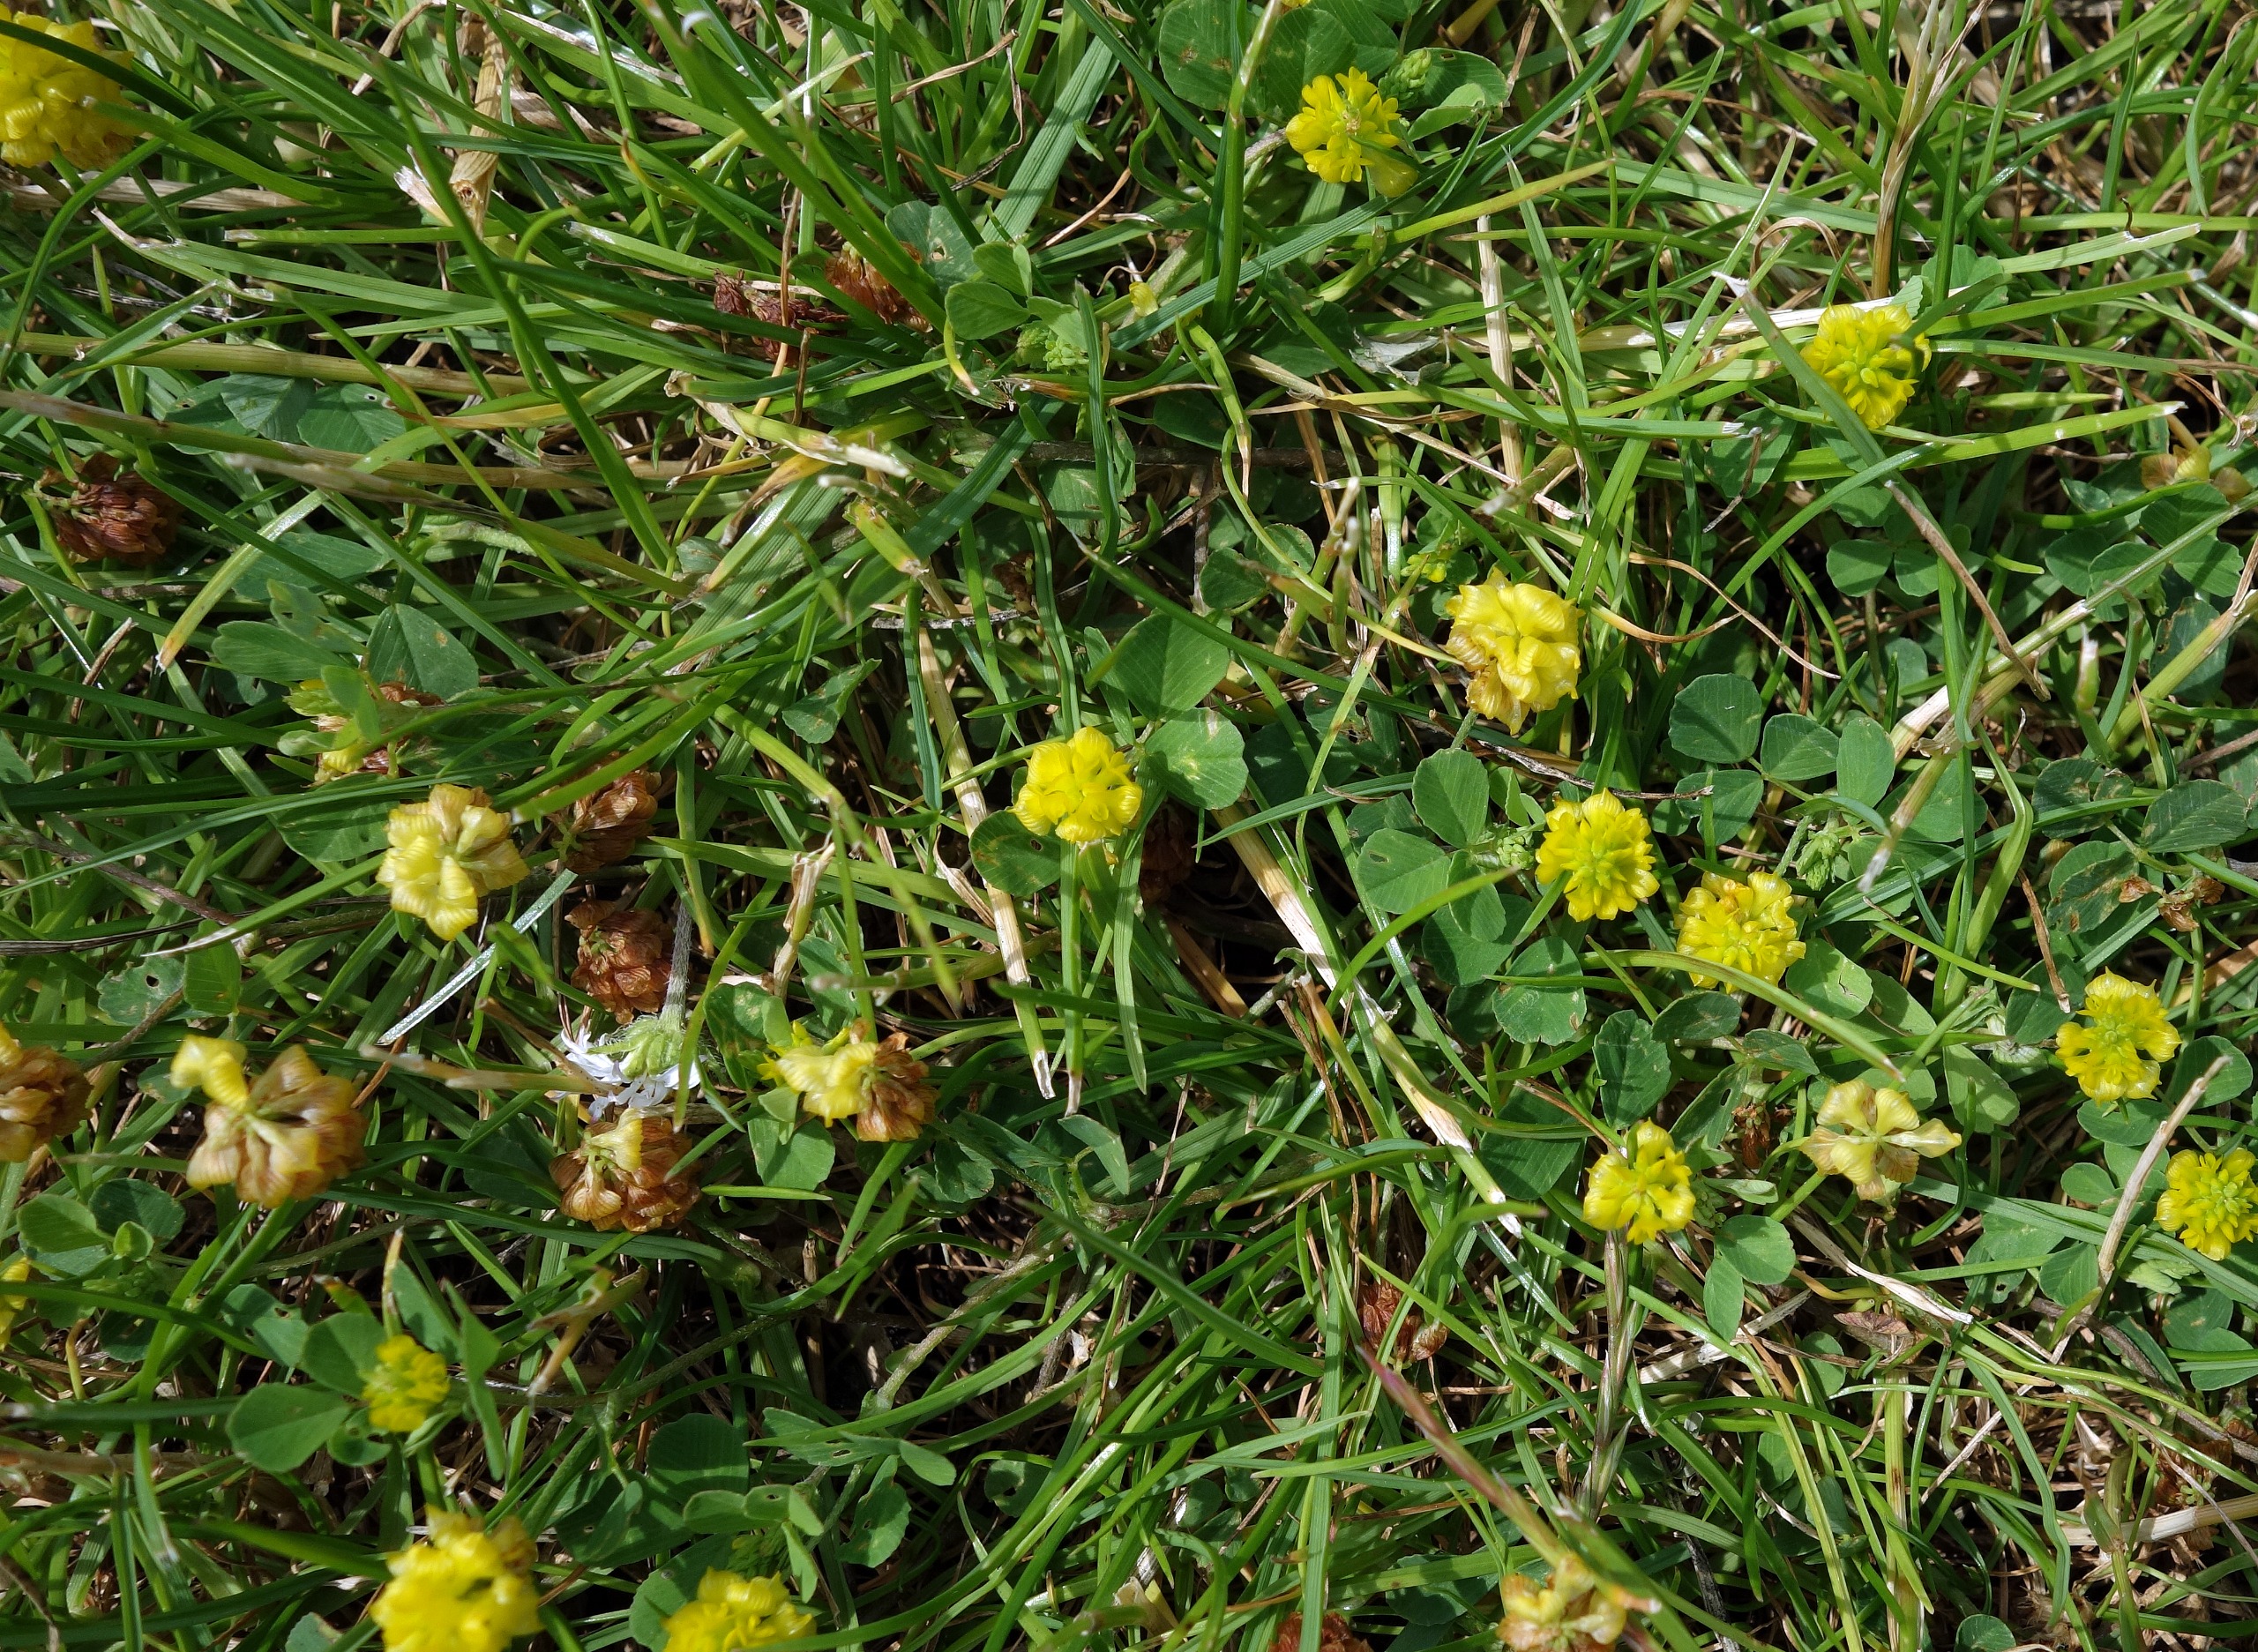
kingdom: Plantae
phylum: Tracheophyta
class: Magnoliopsida
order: Fabales
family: Fabaceae
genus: Trifolium
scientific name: Trifolium campestre
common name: Gul kløver
